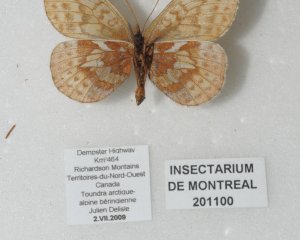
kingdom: Animalia
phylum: Arthropoda
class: Insecta
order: Lepidoptera
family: Nymphalidae
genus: Clossiana
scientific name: Clossiana improba
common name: Dingy Fritillary
